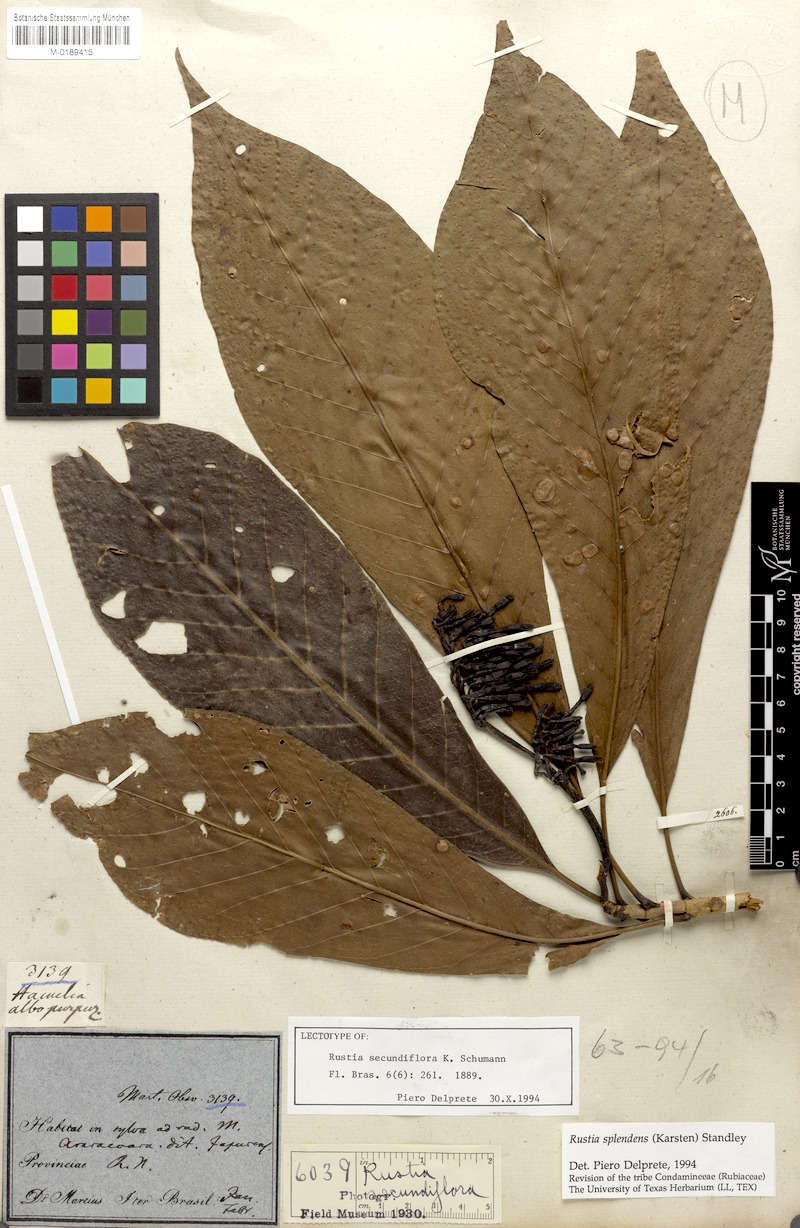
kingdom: Plantae
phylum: Tracheophyta
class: Magnoliopsida
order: Gentianales
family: Rubiaceae
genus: Rustia
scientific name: Rustia thibaudioides
